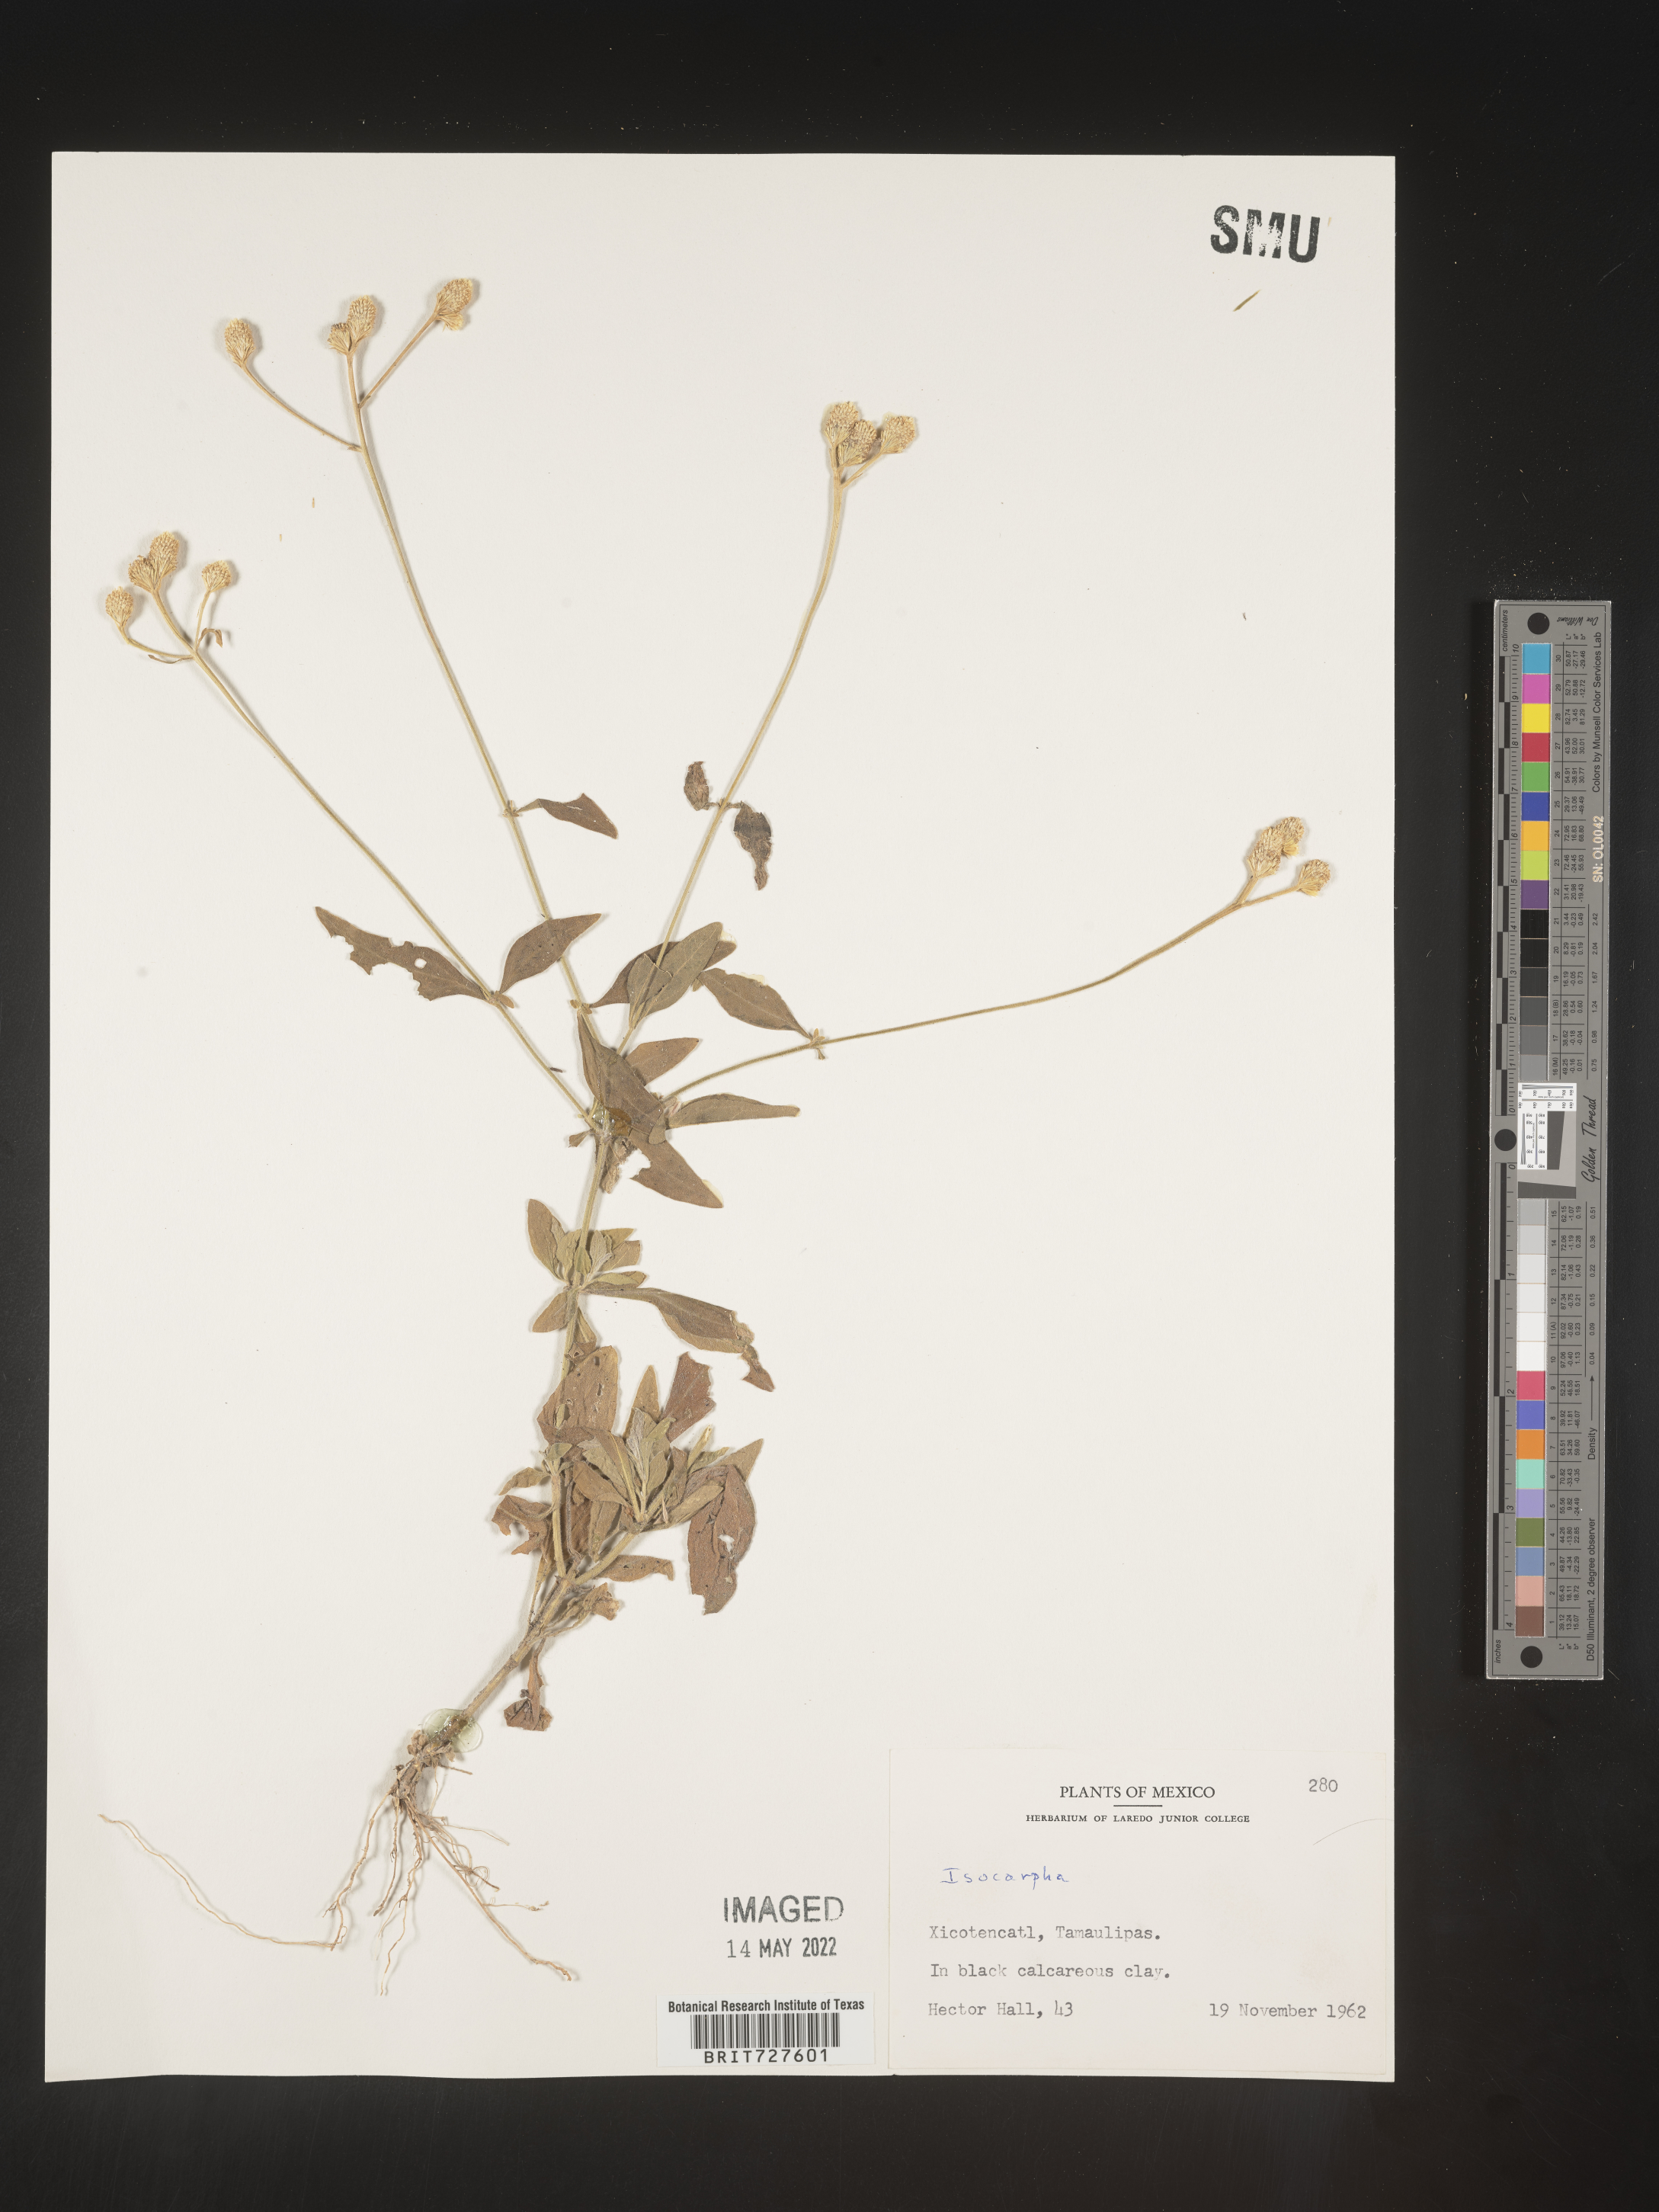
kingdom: Plantae
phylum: Tracheophyta
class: Magnoliopsida
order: Asterales
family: Asteraceae
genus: Isocarpha
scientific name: Isocarpha
